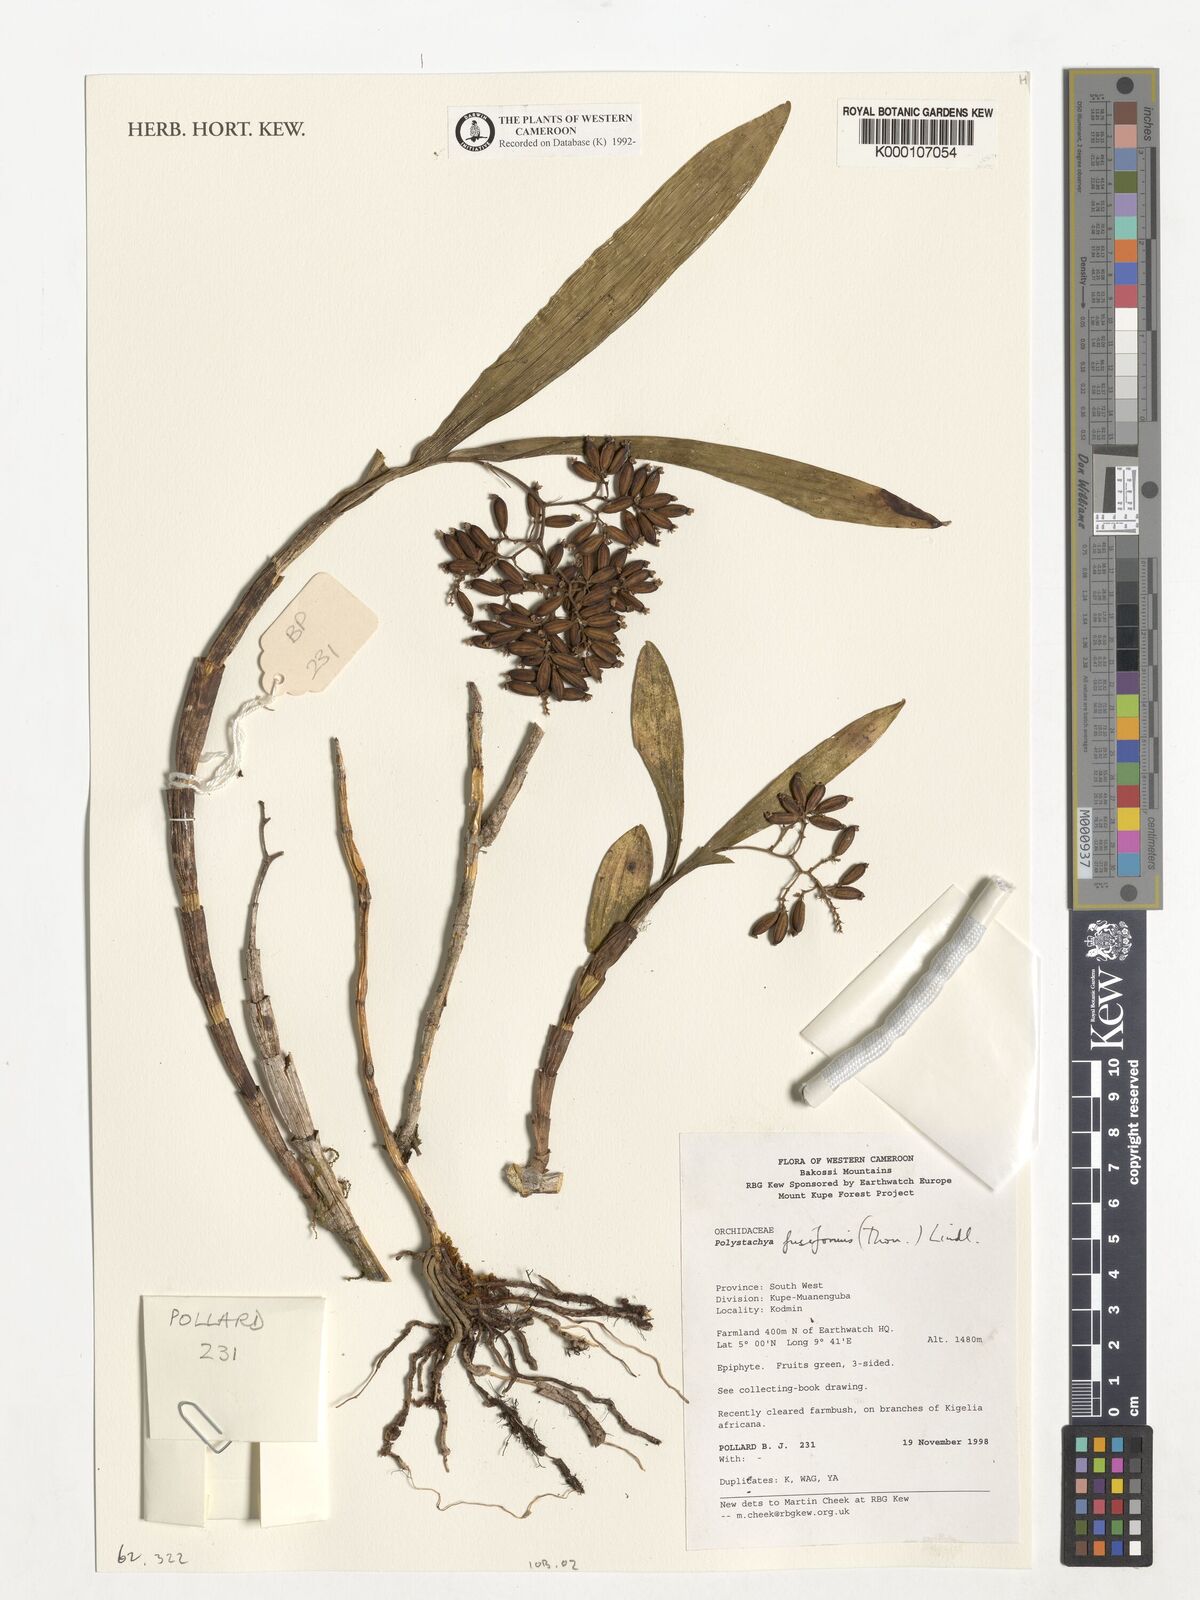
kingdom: Plantae
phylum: Tracheophyta
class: Liliopsida
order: Asparagales
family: Orchidaceae
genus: Polystachya
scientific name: Polystachya fusiformis
